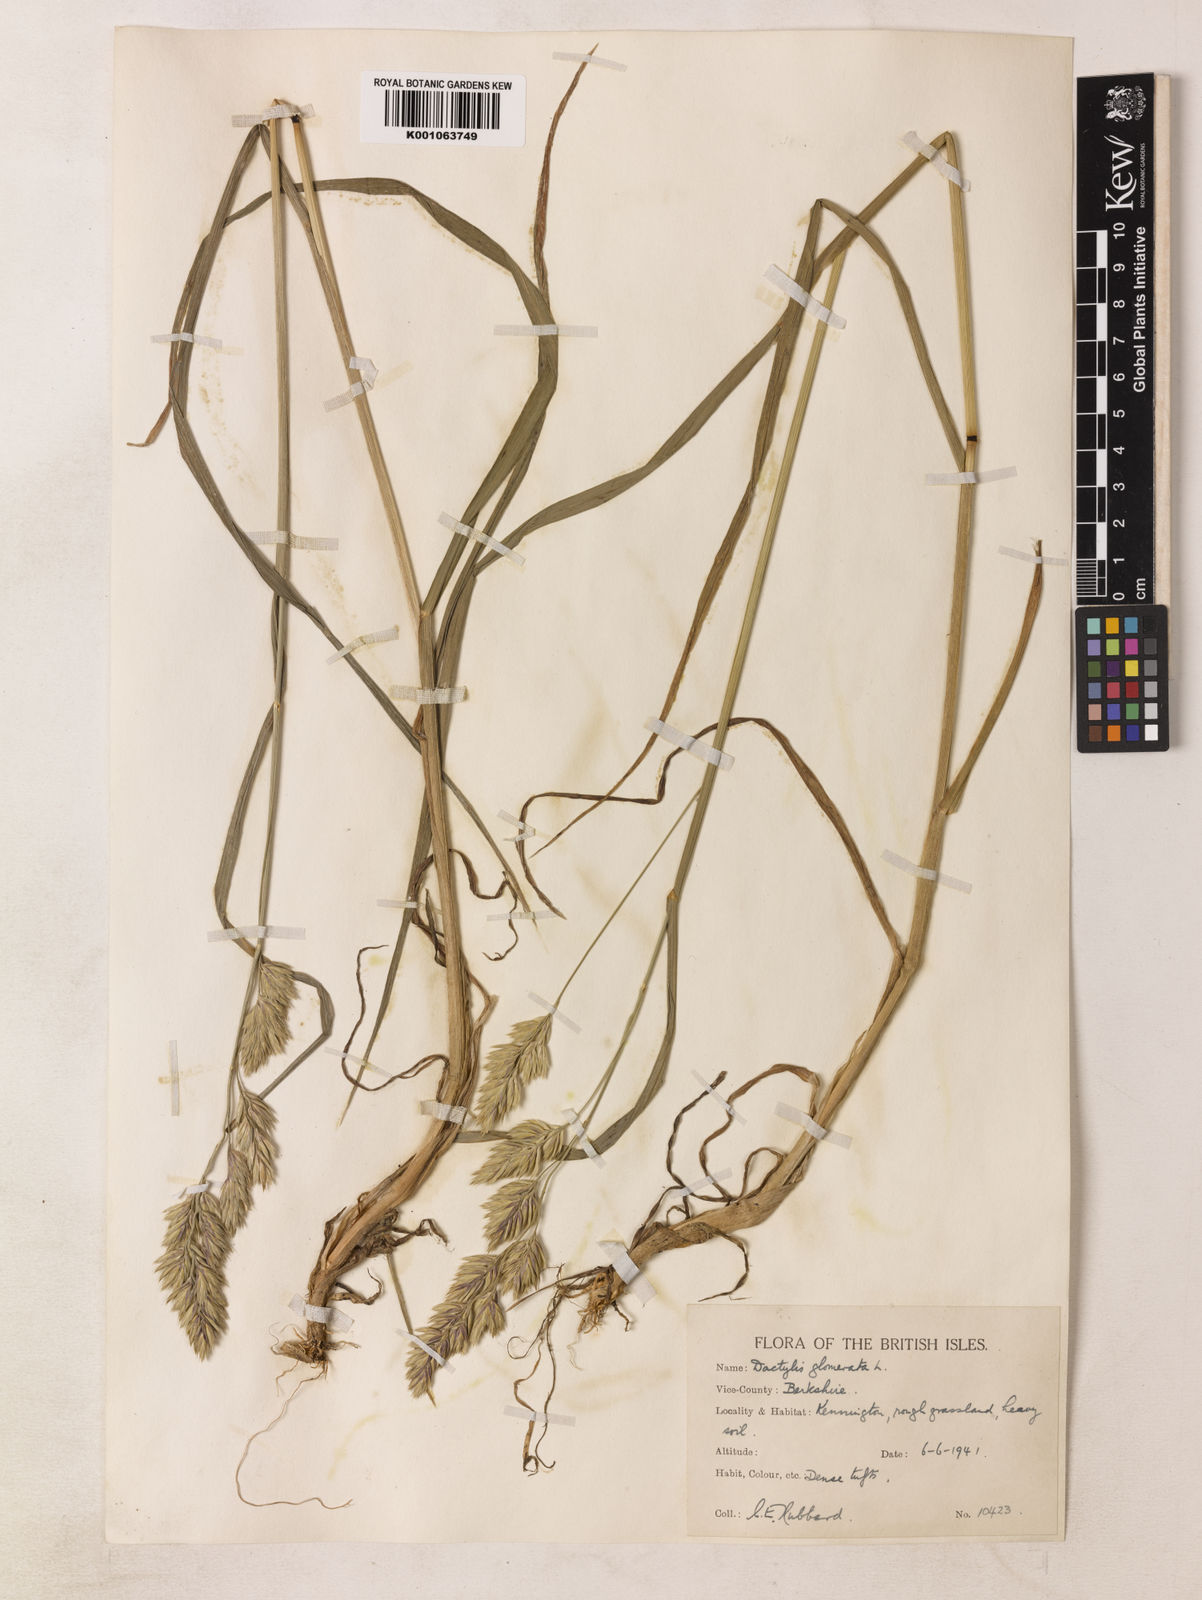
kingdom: Plantae
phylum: Tracheophyta
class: Liliopsida
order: Poales
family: Poaceae
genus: Dactylis
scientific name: Dactylis glomerata
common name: Orchardgrass
